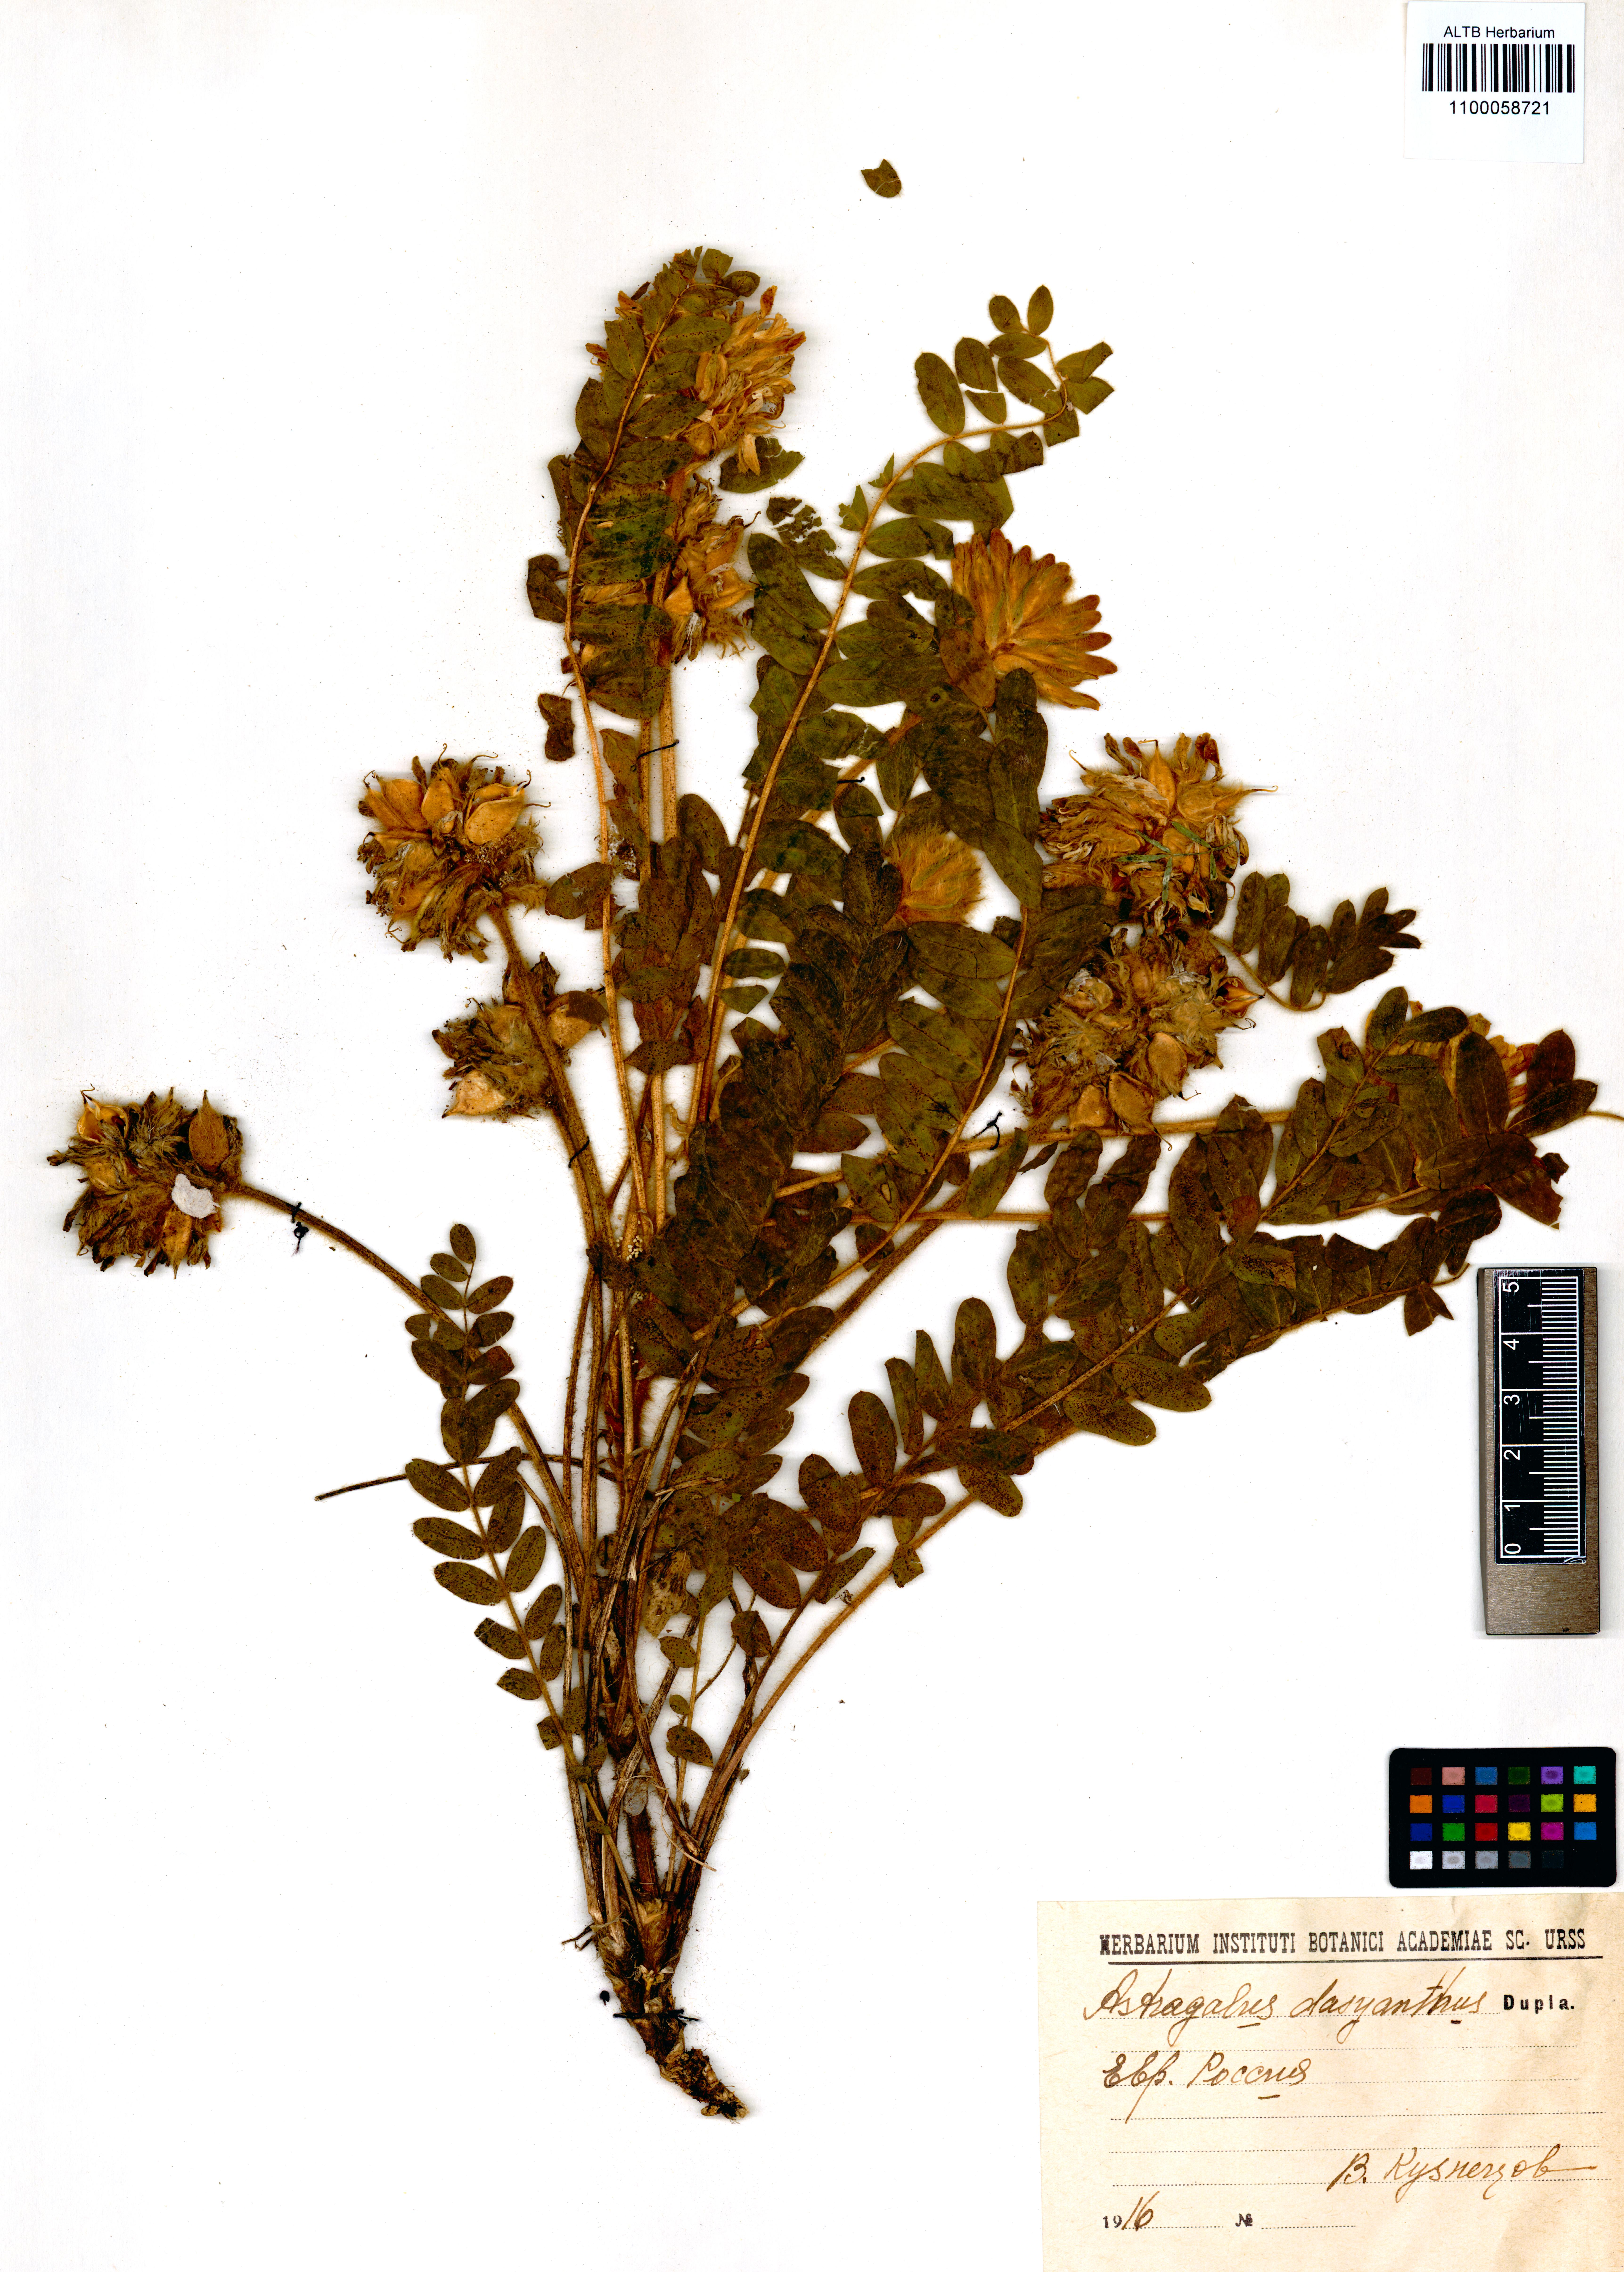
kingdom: Plantae
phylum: Tracheophyta
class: Magnoliopsida
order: Fabales
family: Fabaceae
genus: Astragalus
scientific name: Astragalus dasyanthus
